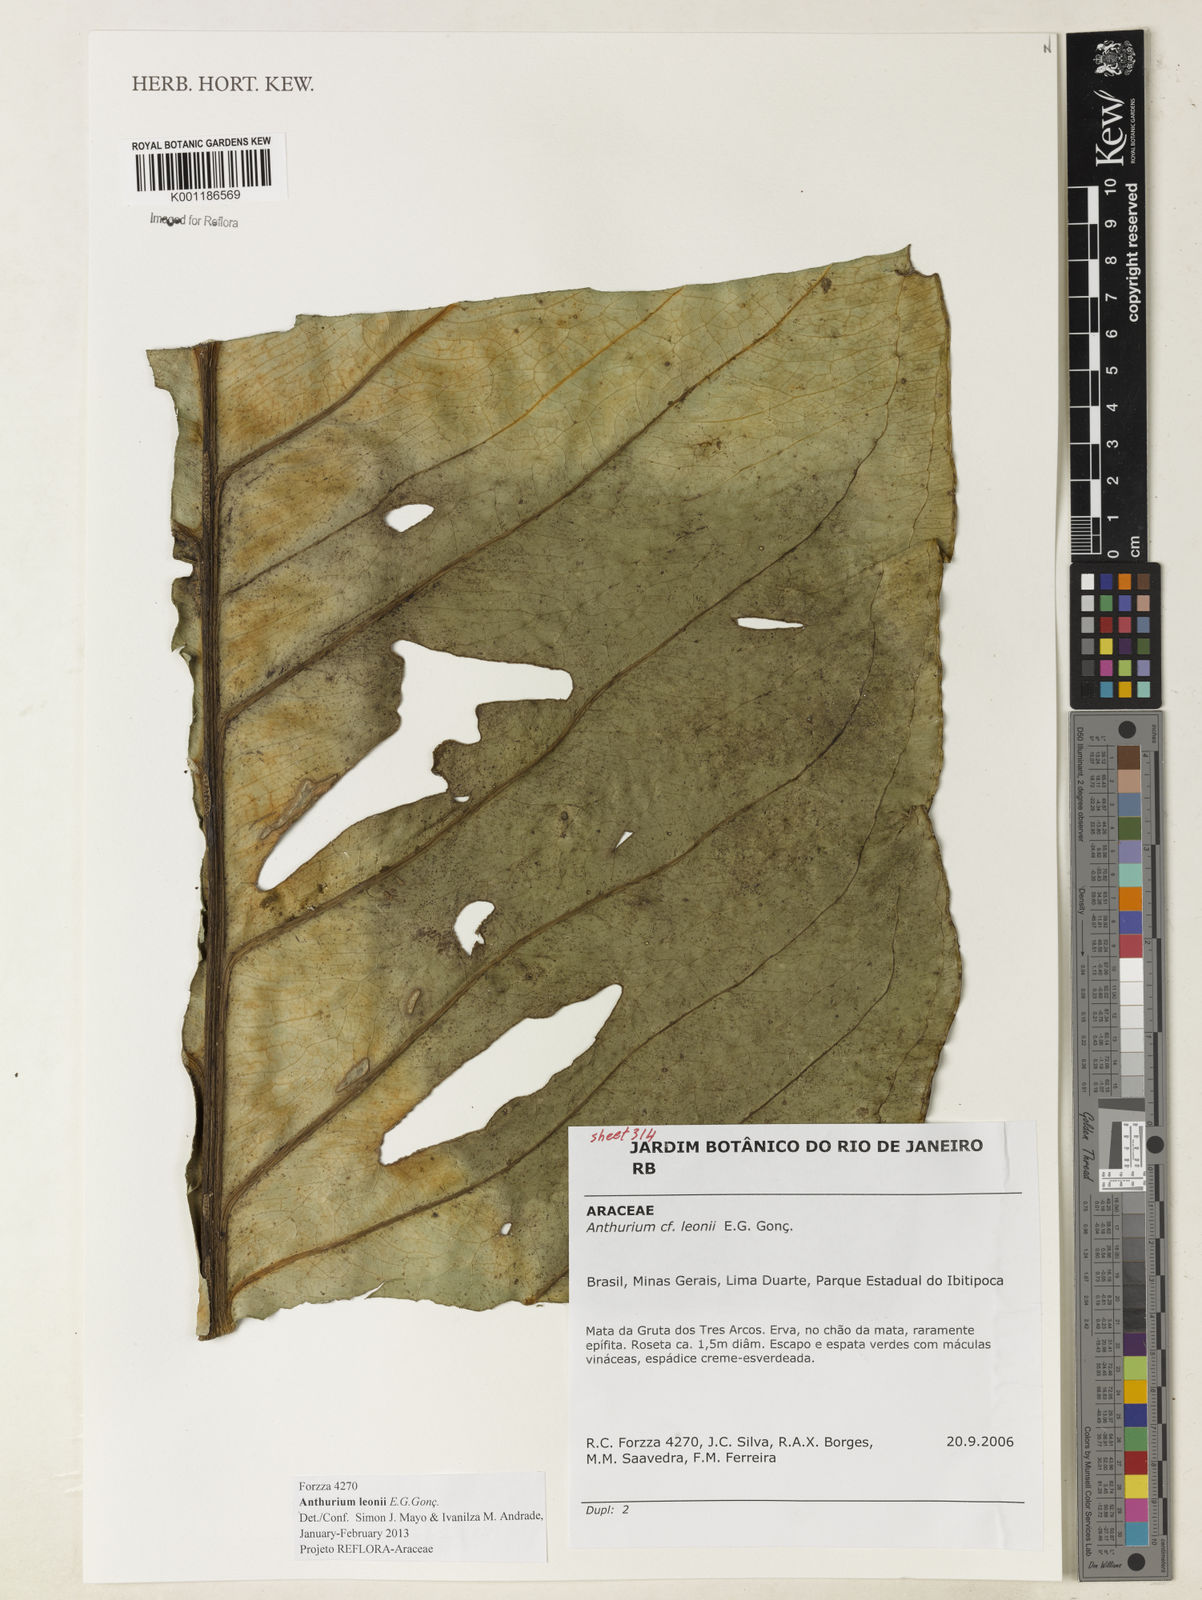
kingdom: Plantae
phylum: Tracheophyta
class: Liliopsida
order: Alismatales
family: Araceae
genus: Anthurium
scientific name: Anthurium leonii
